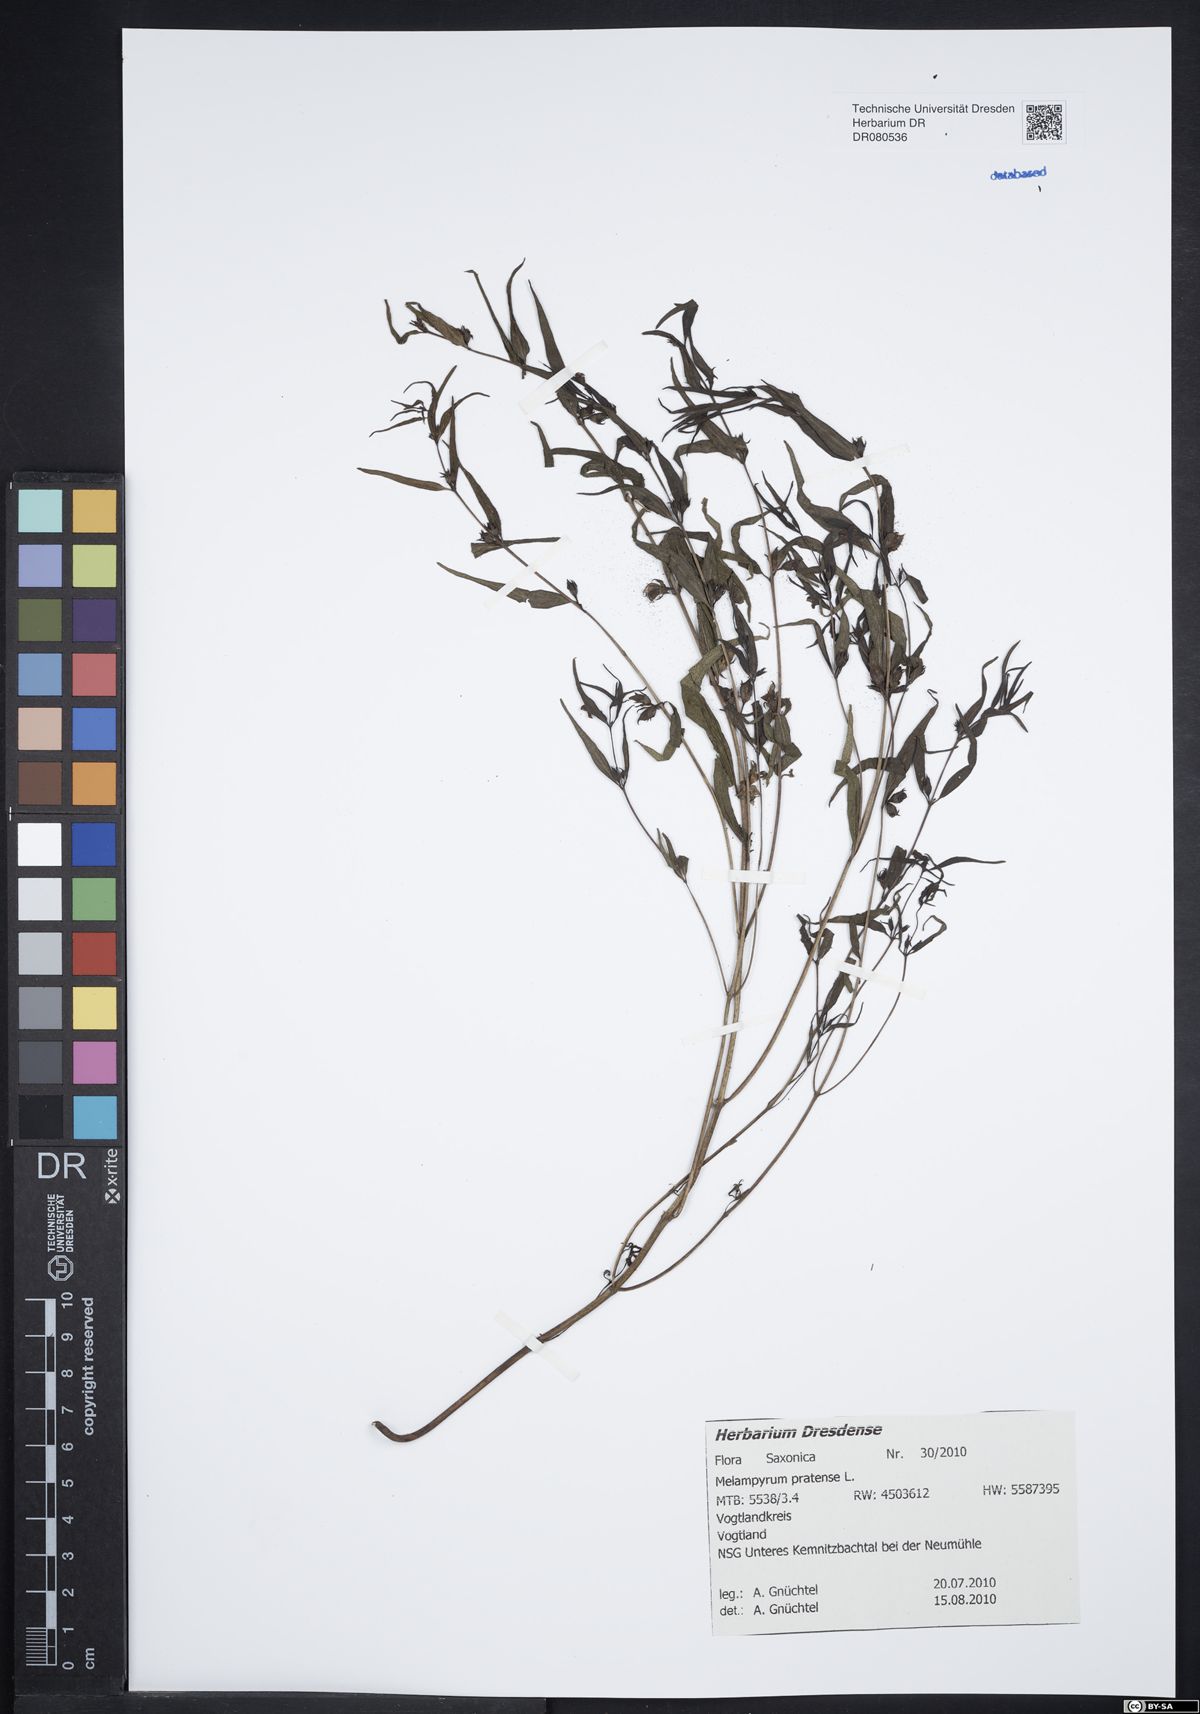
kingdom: Plantae
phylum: Tracheophyta
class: Magnoliopsida
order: Lamiales
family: Orobanchaceae
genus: Melampyrum
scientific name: Melampyrum pratense
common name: Common cow-wheat
